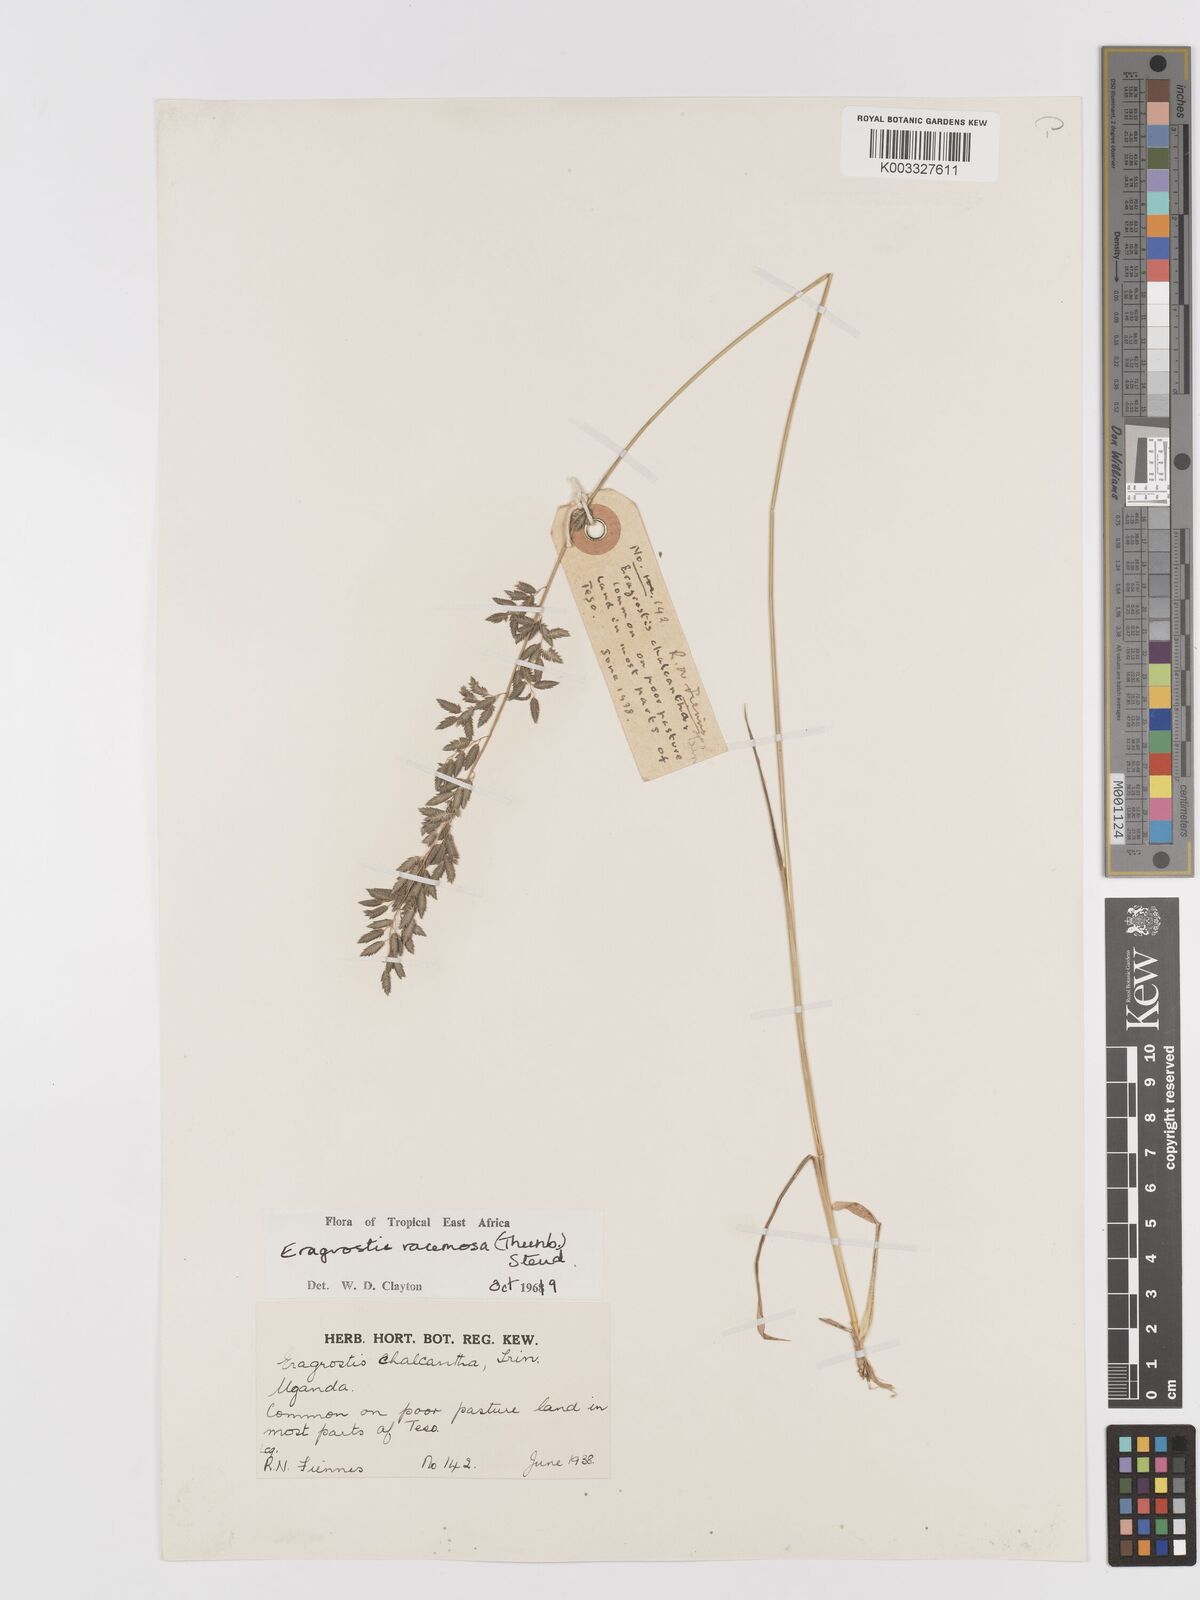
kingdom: Plantae
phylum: Tracheophyta
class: Liliopsida
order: Poales
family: Poaceae
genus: Eragrostis
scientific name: Eragrostis racemosa
